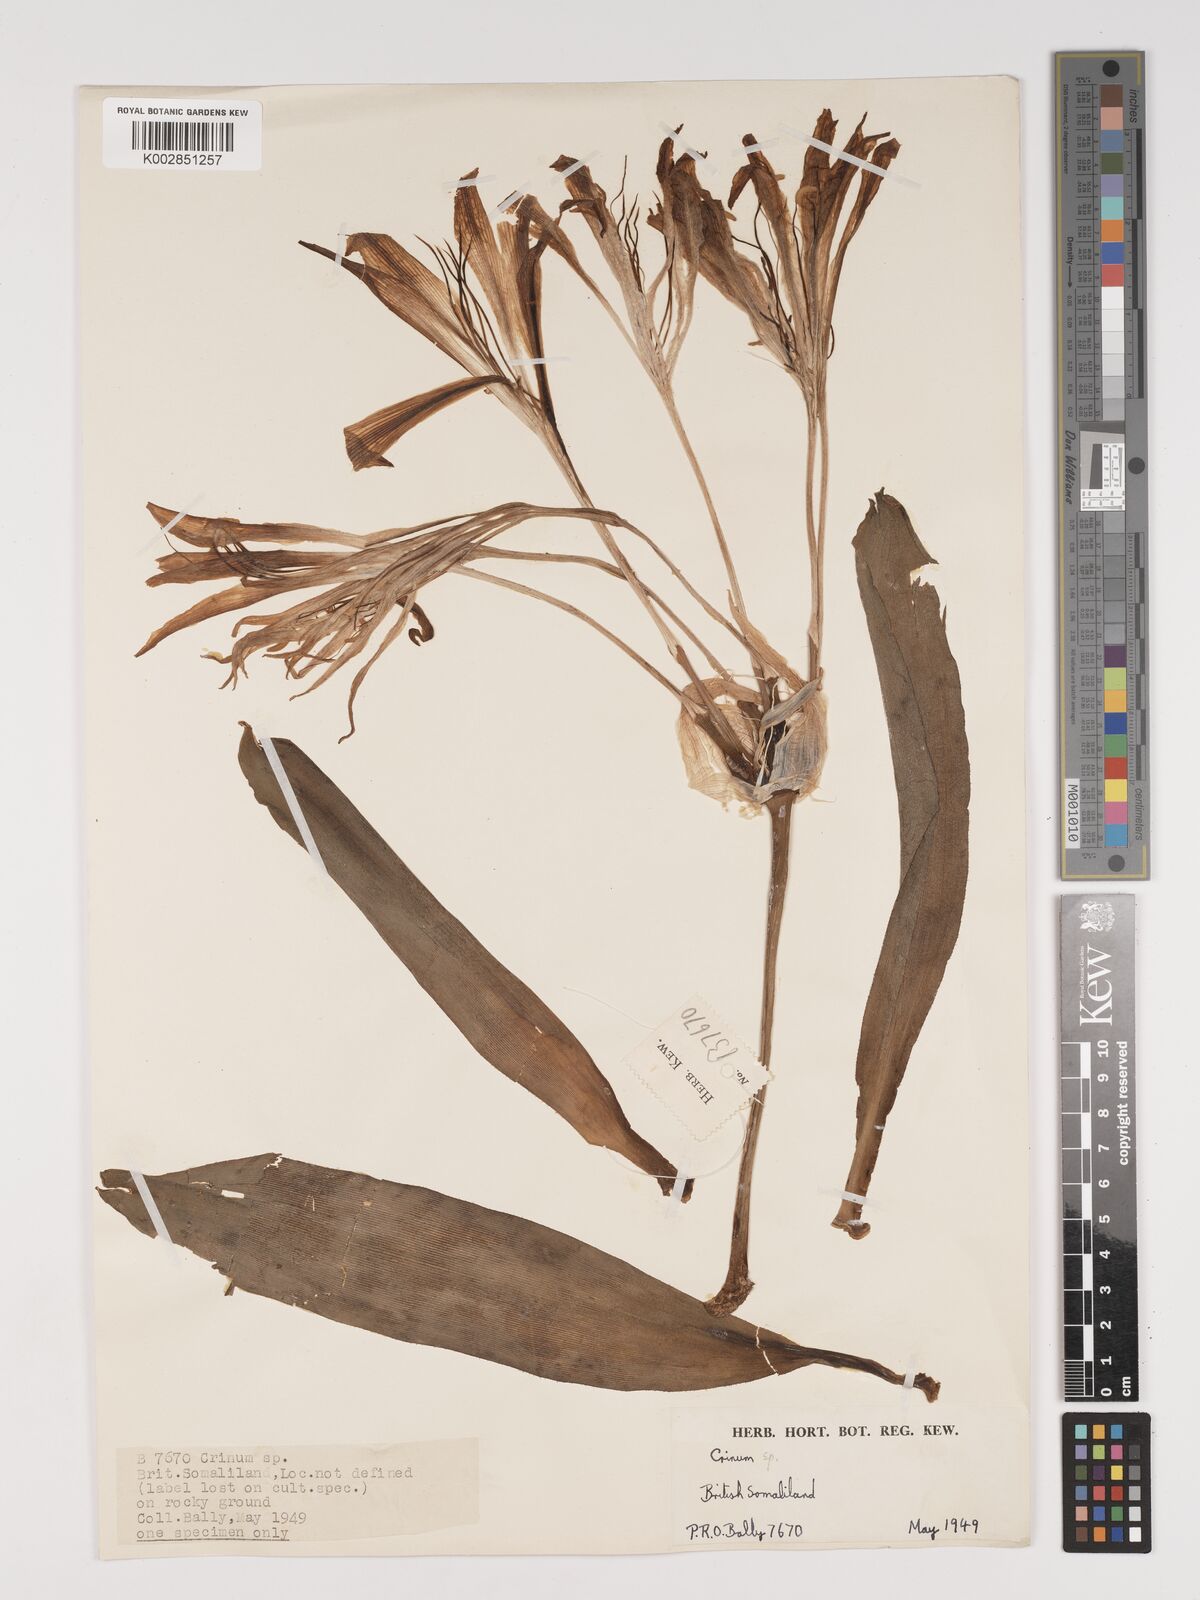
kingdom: Plantae
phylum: Tracheophyta
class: Liliopsida
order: Asparagales
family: Amaryllidaceae
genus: Crinum
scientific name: Crinum purpurascens
